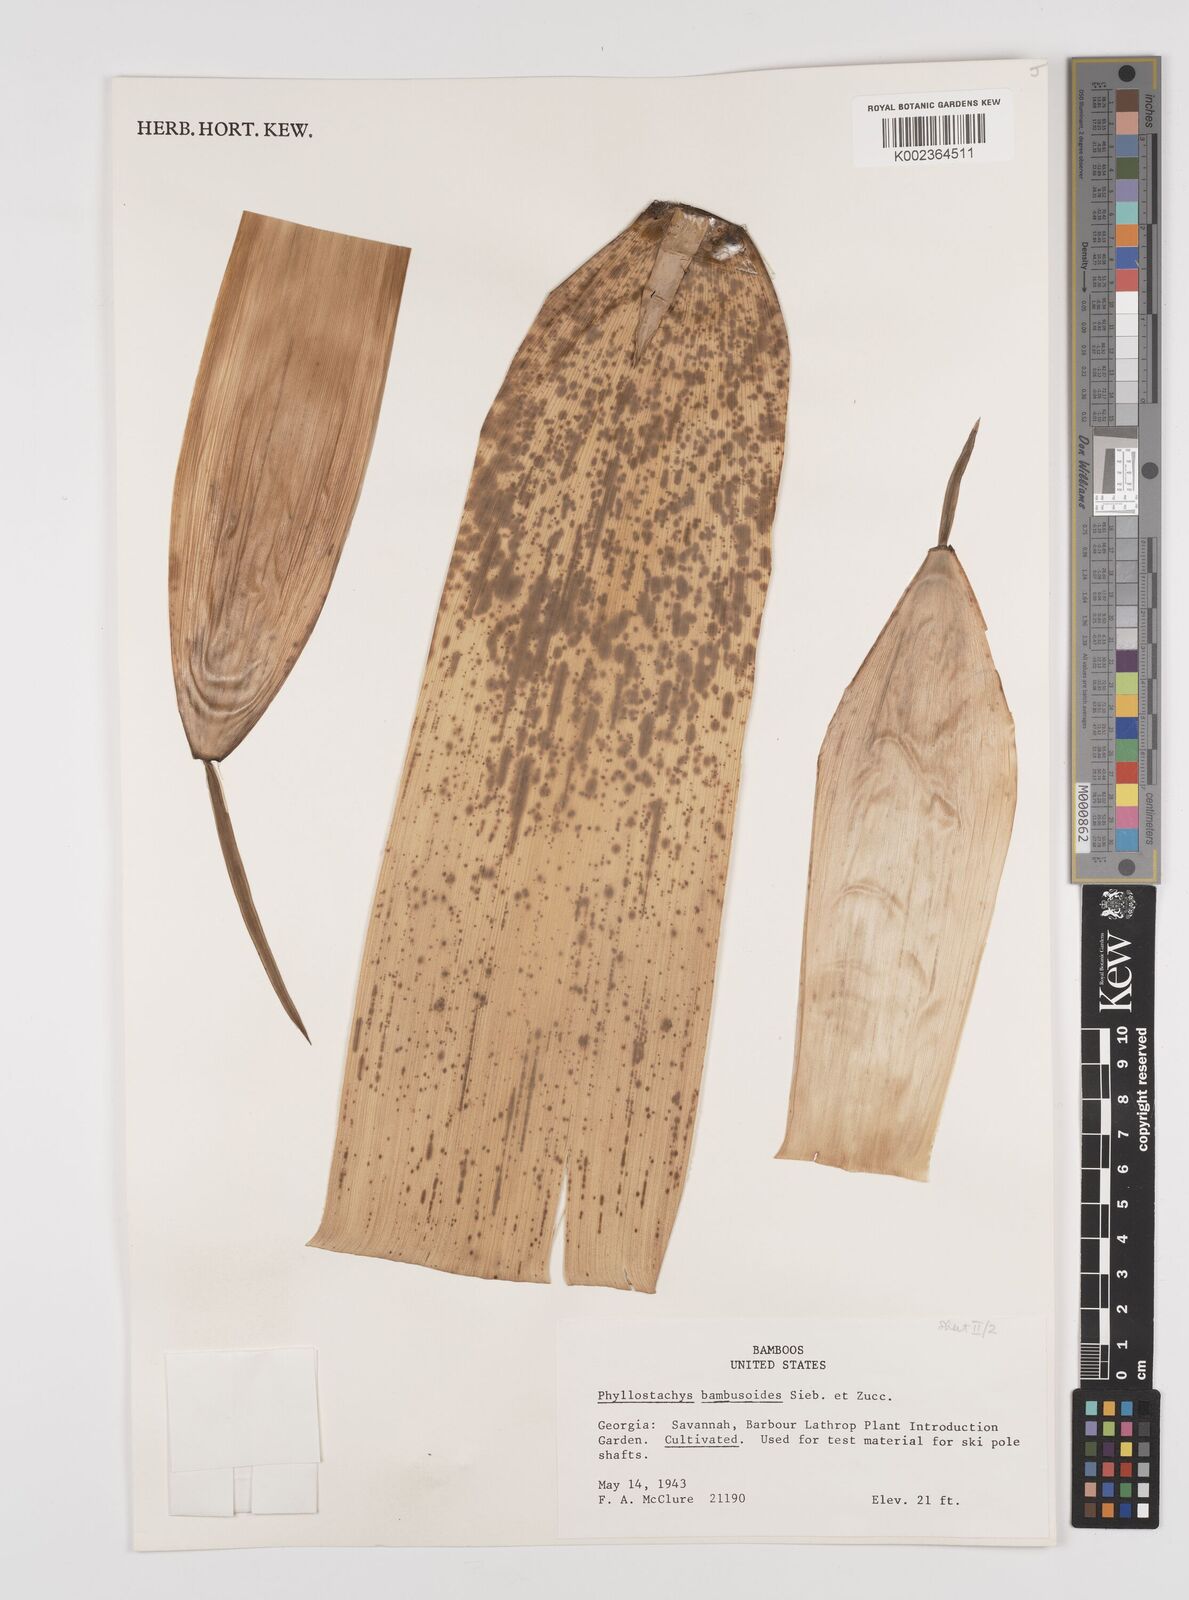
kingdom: Plantae
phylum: Tracheophyta
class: Liliopsida
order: Poales
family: Poaceae
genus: Phyllostachys
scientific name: Phyllostachys reticulata
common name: Bamboo
